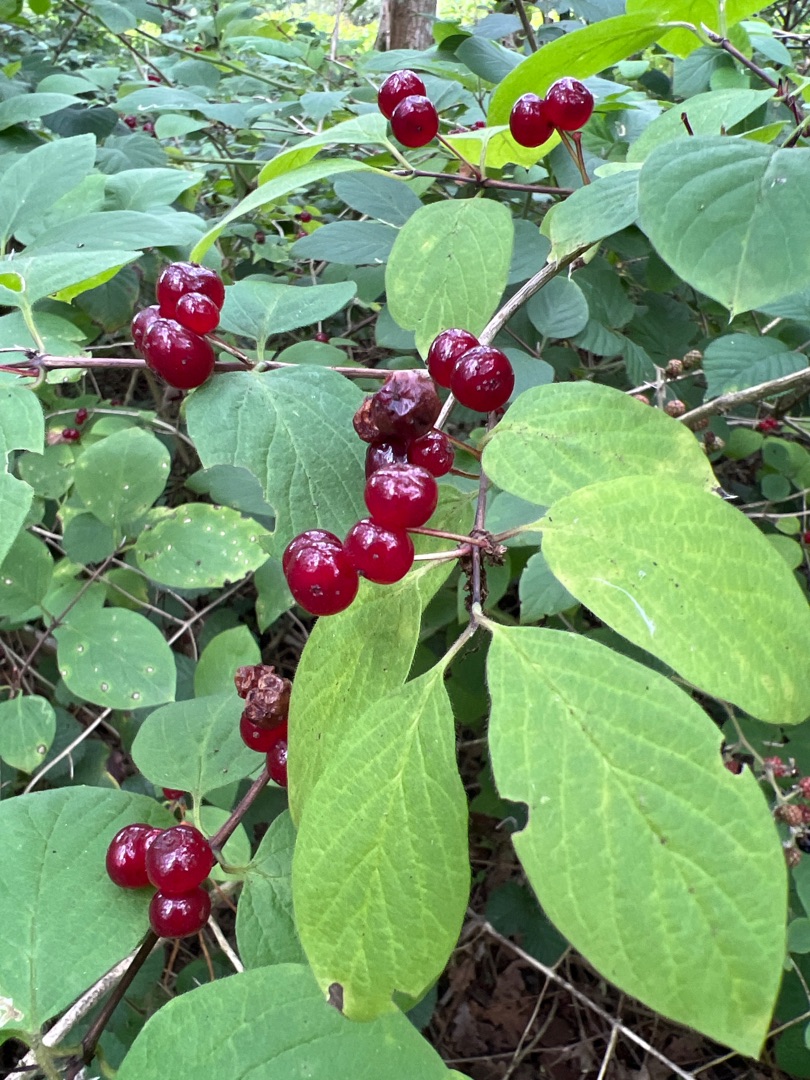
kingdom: Plantae
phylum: Tracheophyta
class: Magnoliopsida
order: Dipsacales
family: Caprifoliaceae
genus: Lonicera
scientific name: Lonicera xylosteum
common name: Dunet gedeblad
